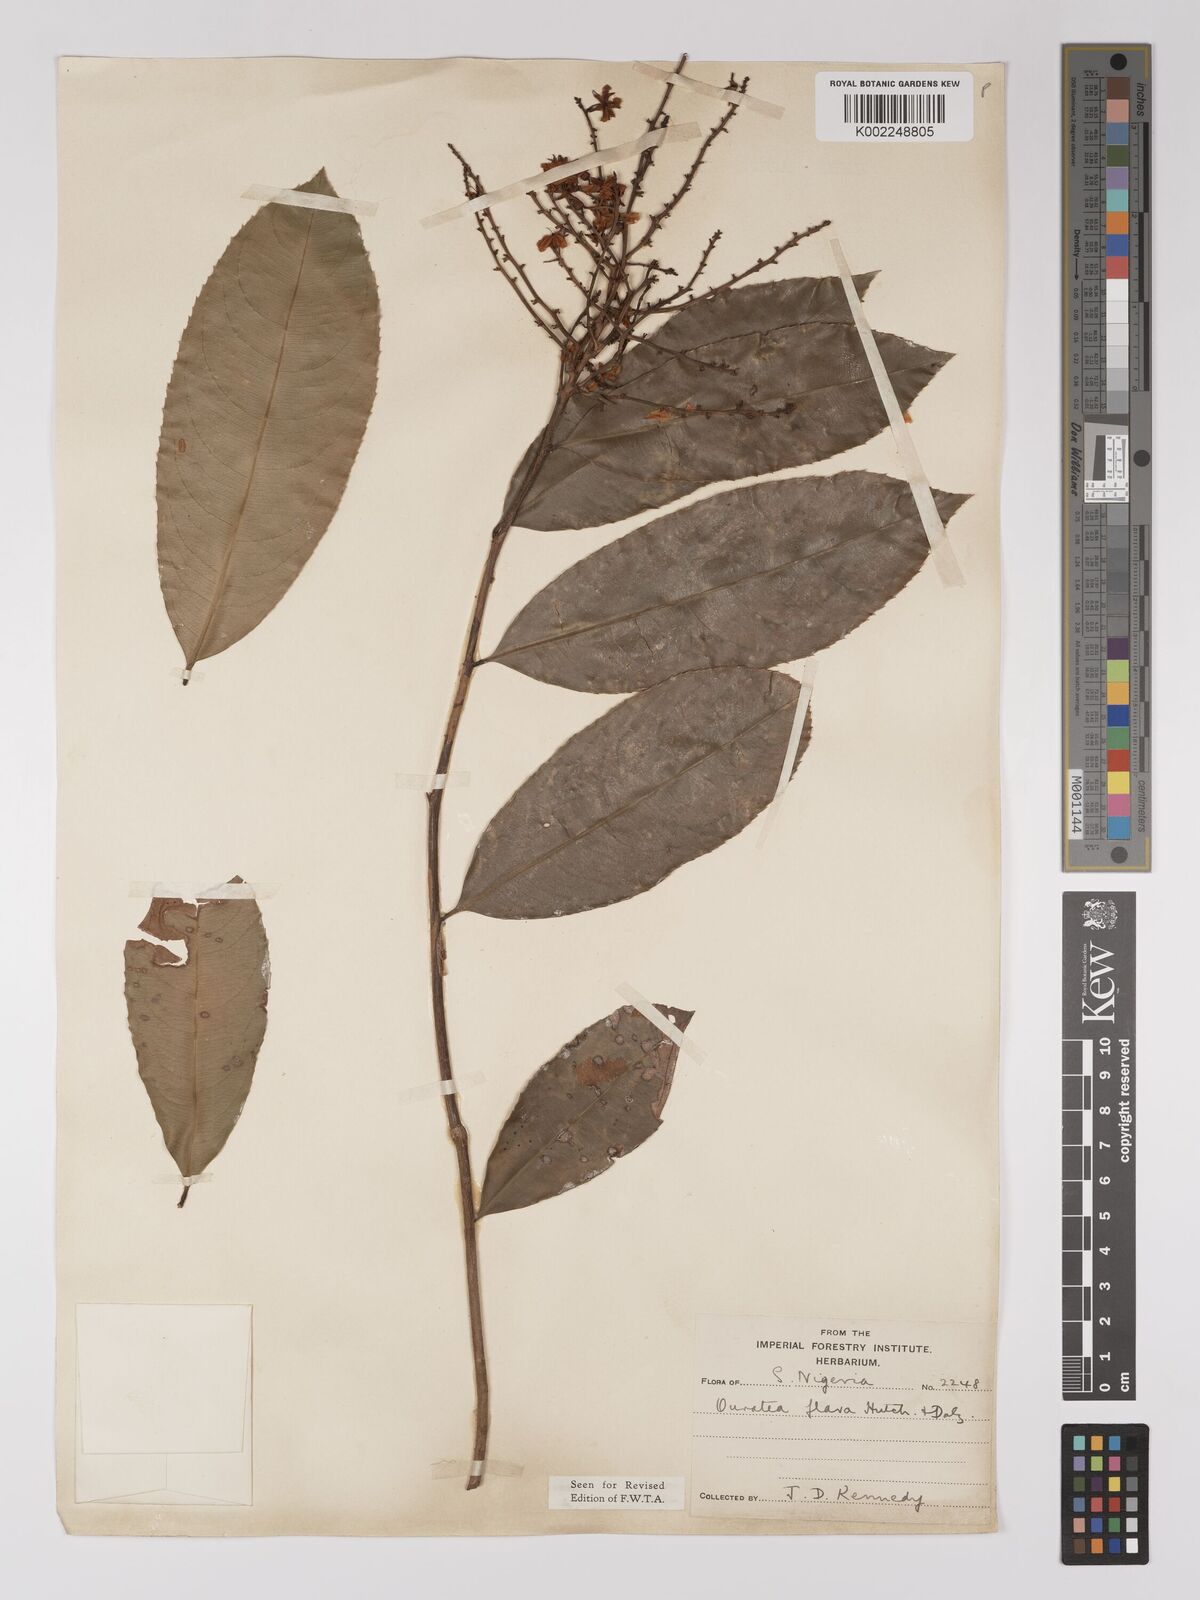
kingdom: Plantae
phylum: Tracheophyta
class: Magnoliopsida
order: Malpighiales
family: Ochnaceae
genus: Campylospermum
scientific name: Campylospermum flavum
